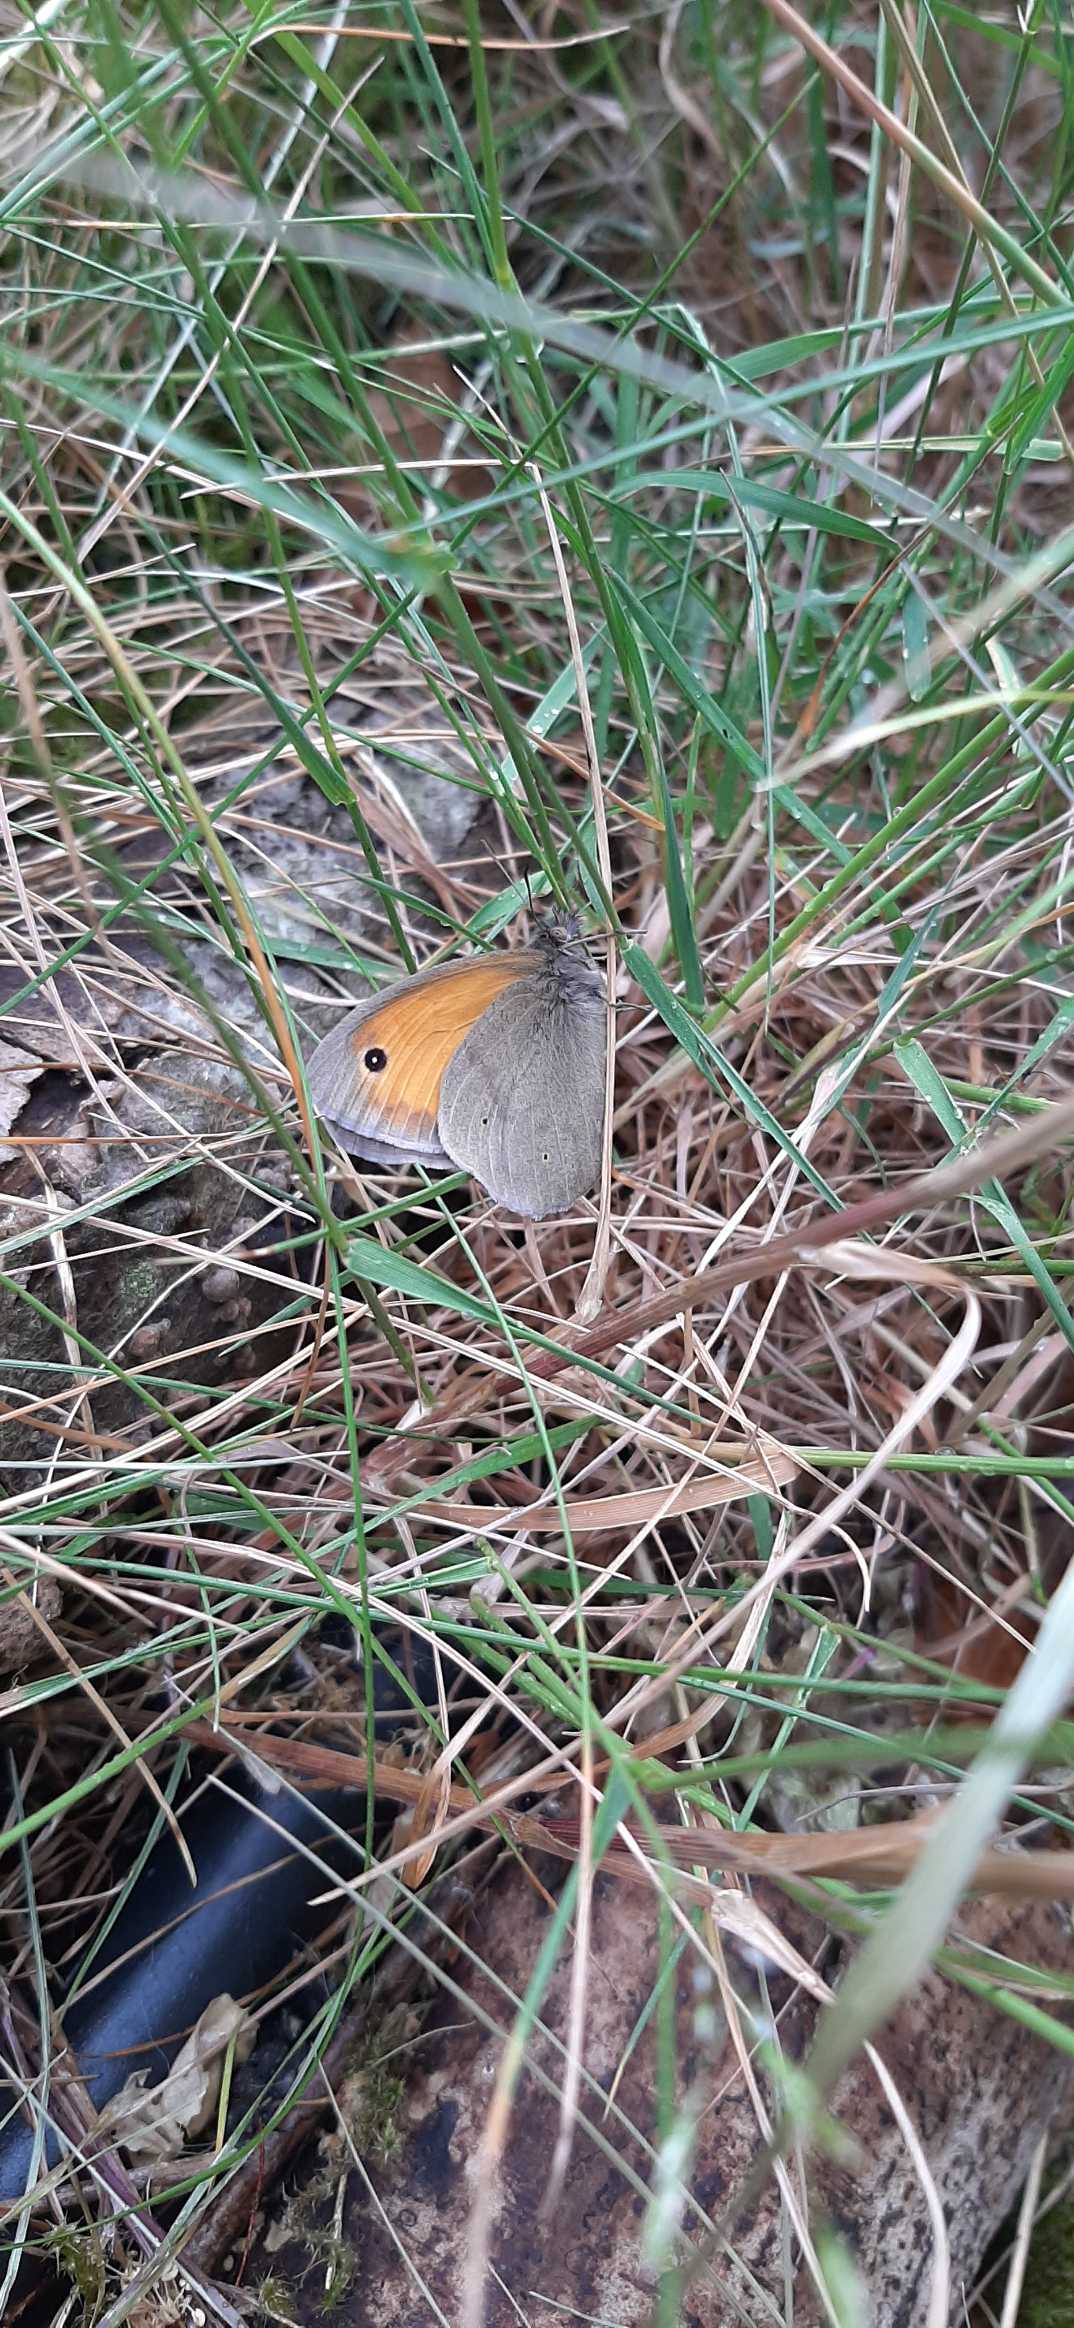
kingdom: Animalia
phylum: Arthropoda
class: Insecta
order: Lepidoptera
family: Nymphalidae
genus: Maniola
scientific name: Maniola jurtina
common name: Græsrandøje
